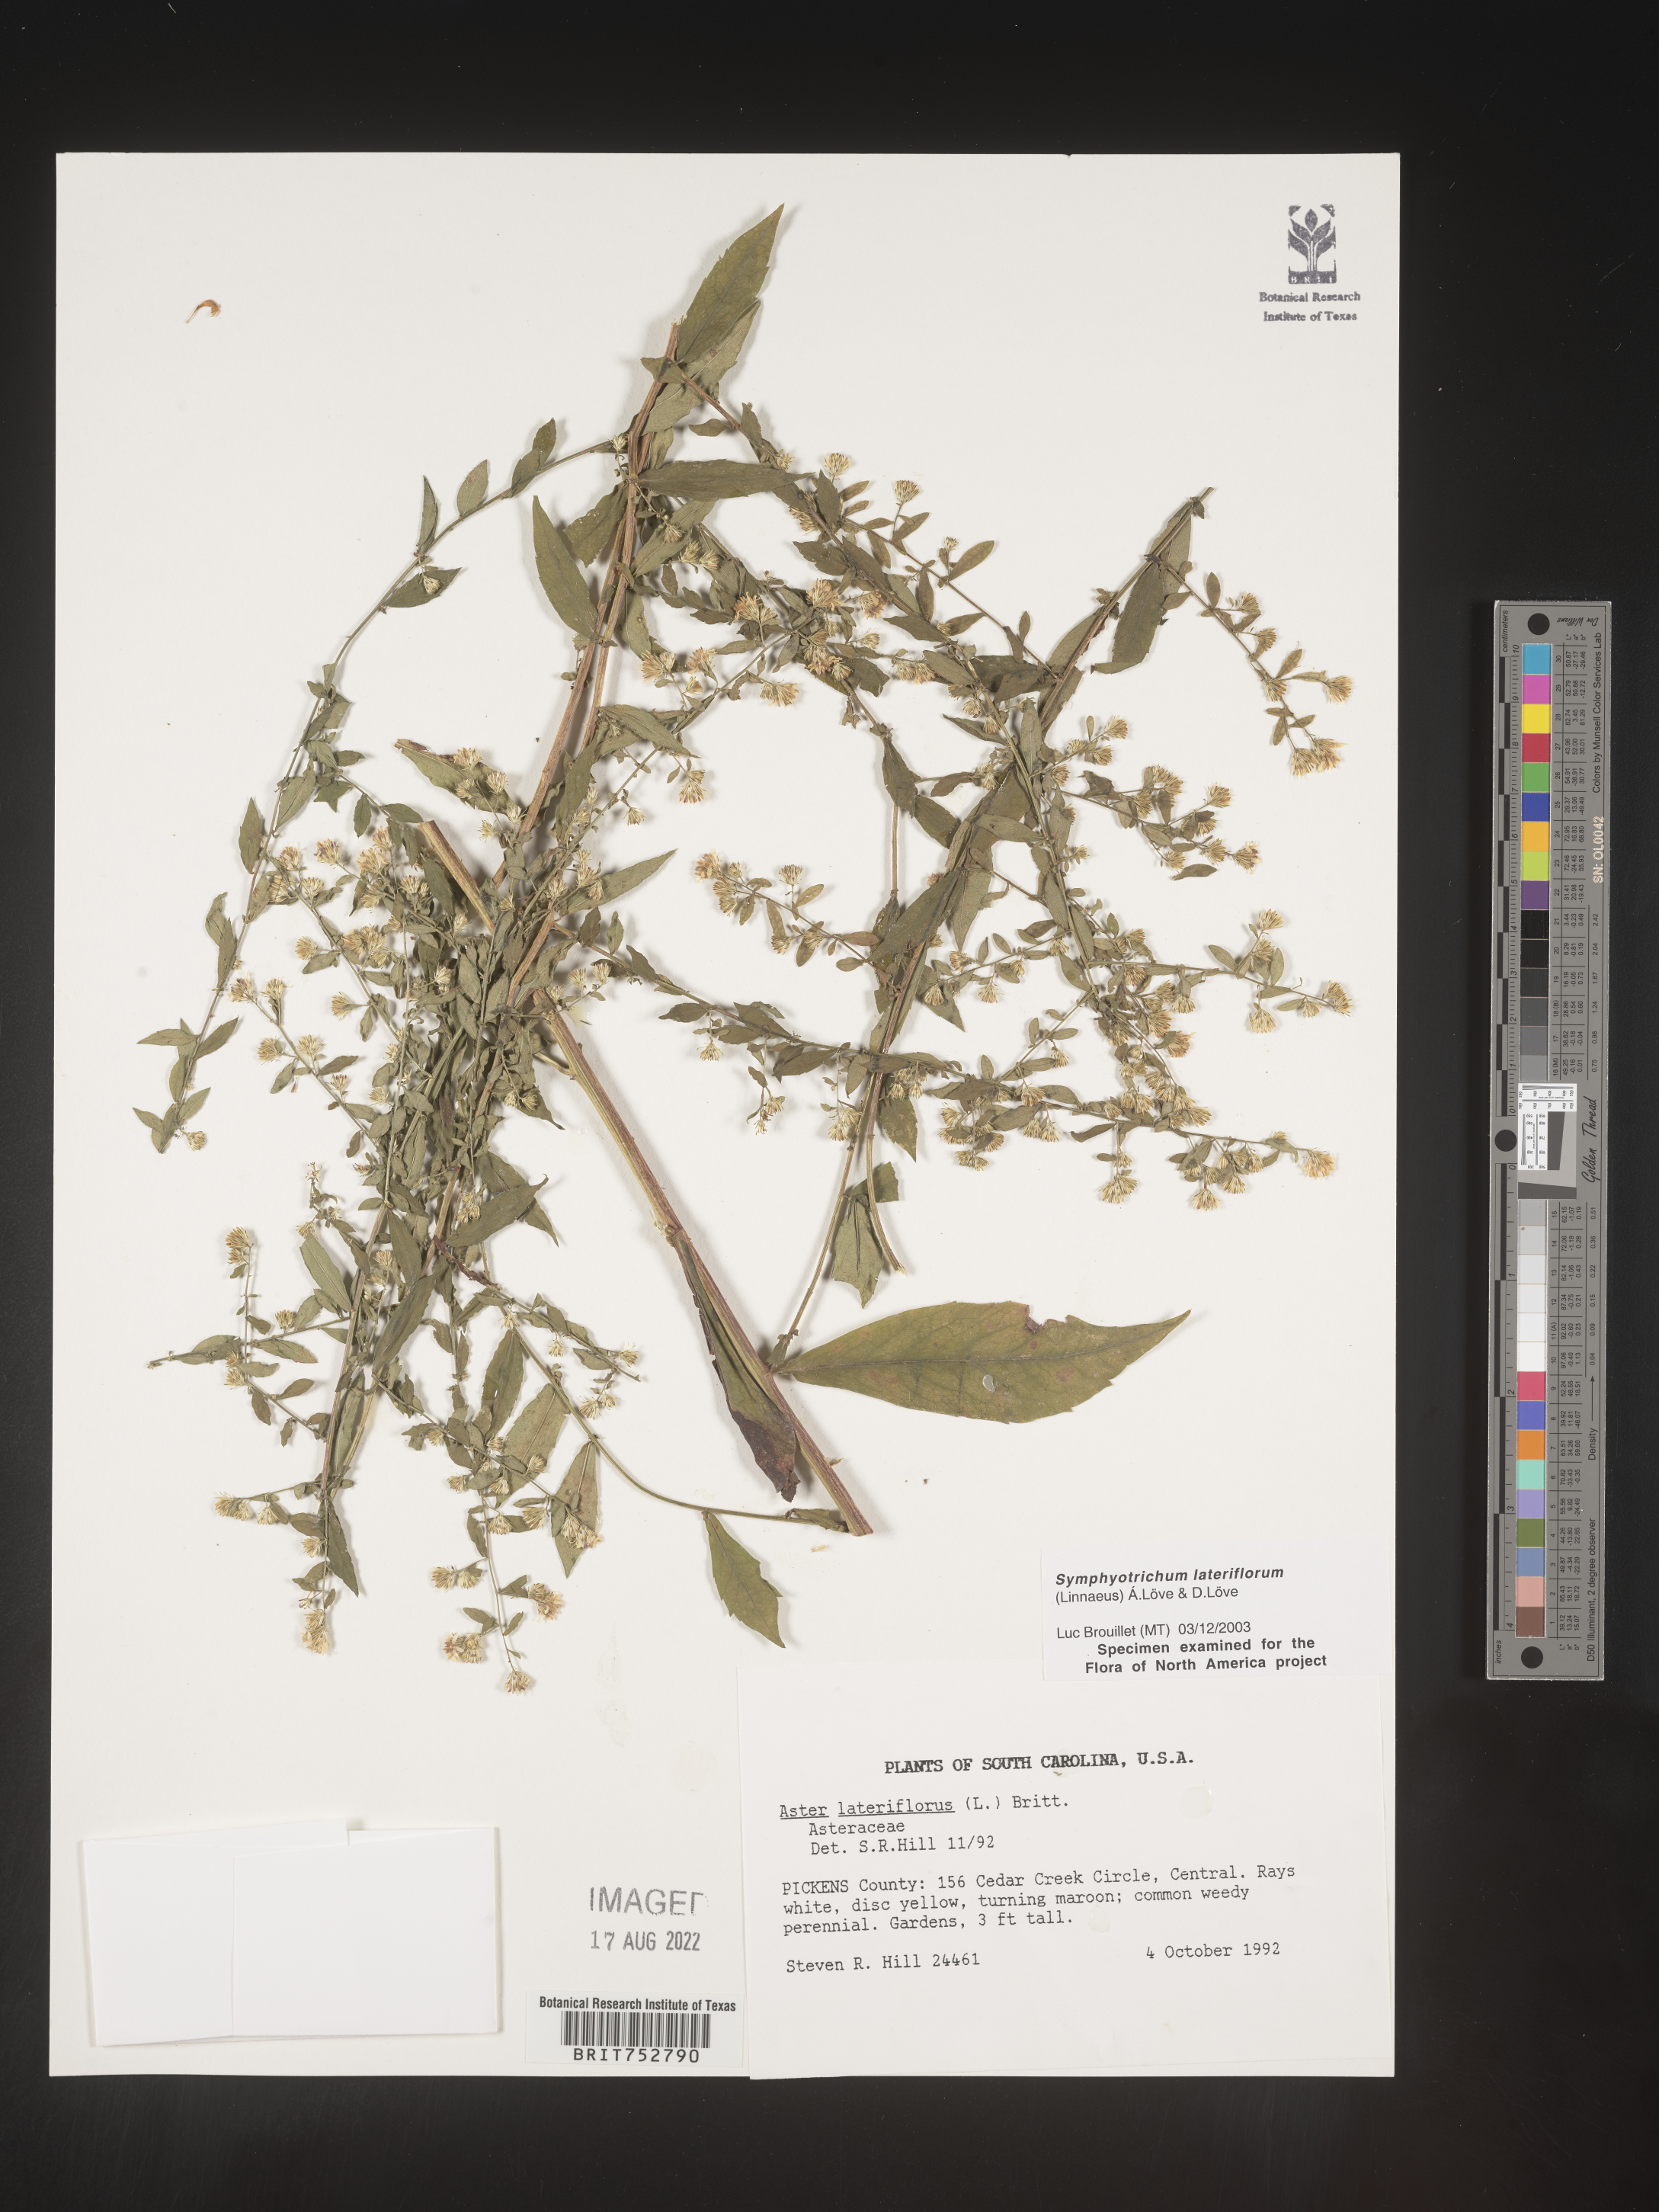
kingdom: Plantae
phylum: Tracheophyta
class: Magnoliopsida
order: Asterales
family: Asteraceae
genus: Symphyotrichum
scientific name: Symphyotrichum lateriflorum
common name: Calico aster
